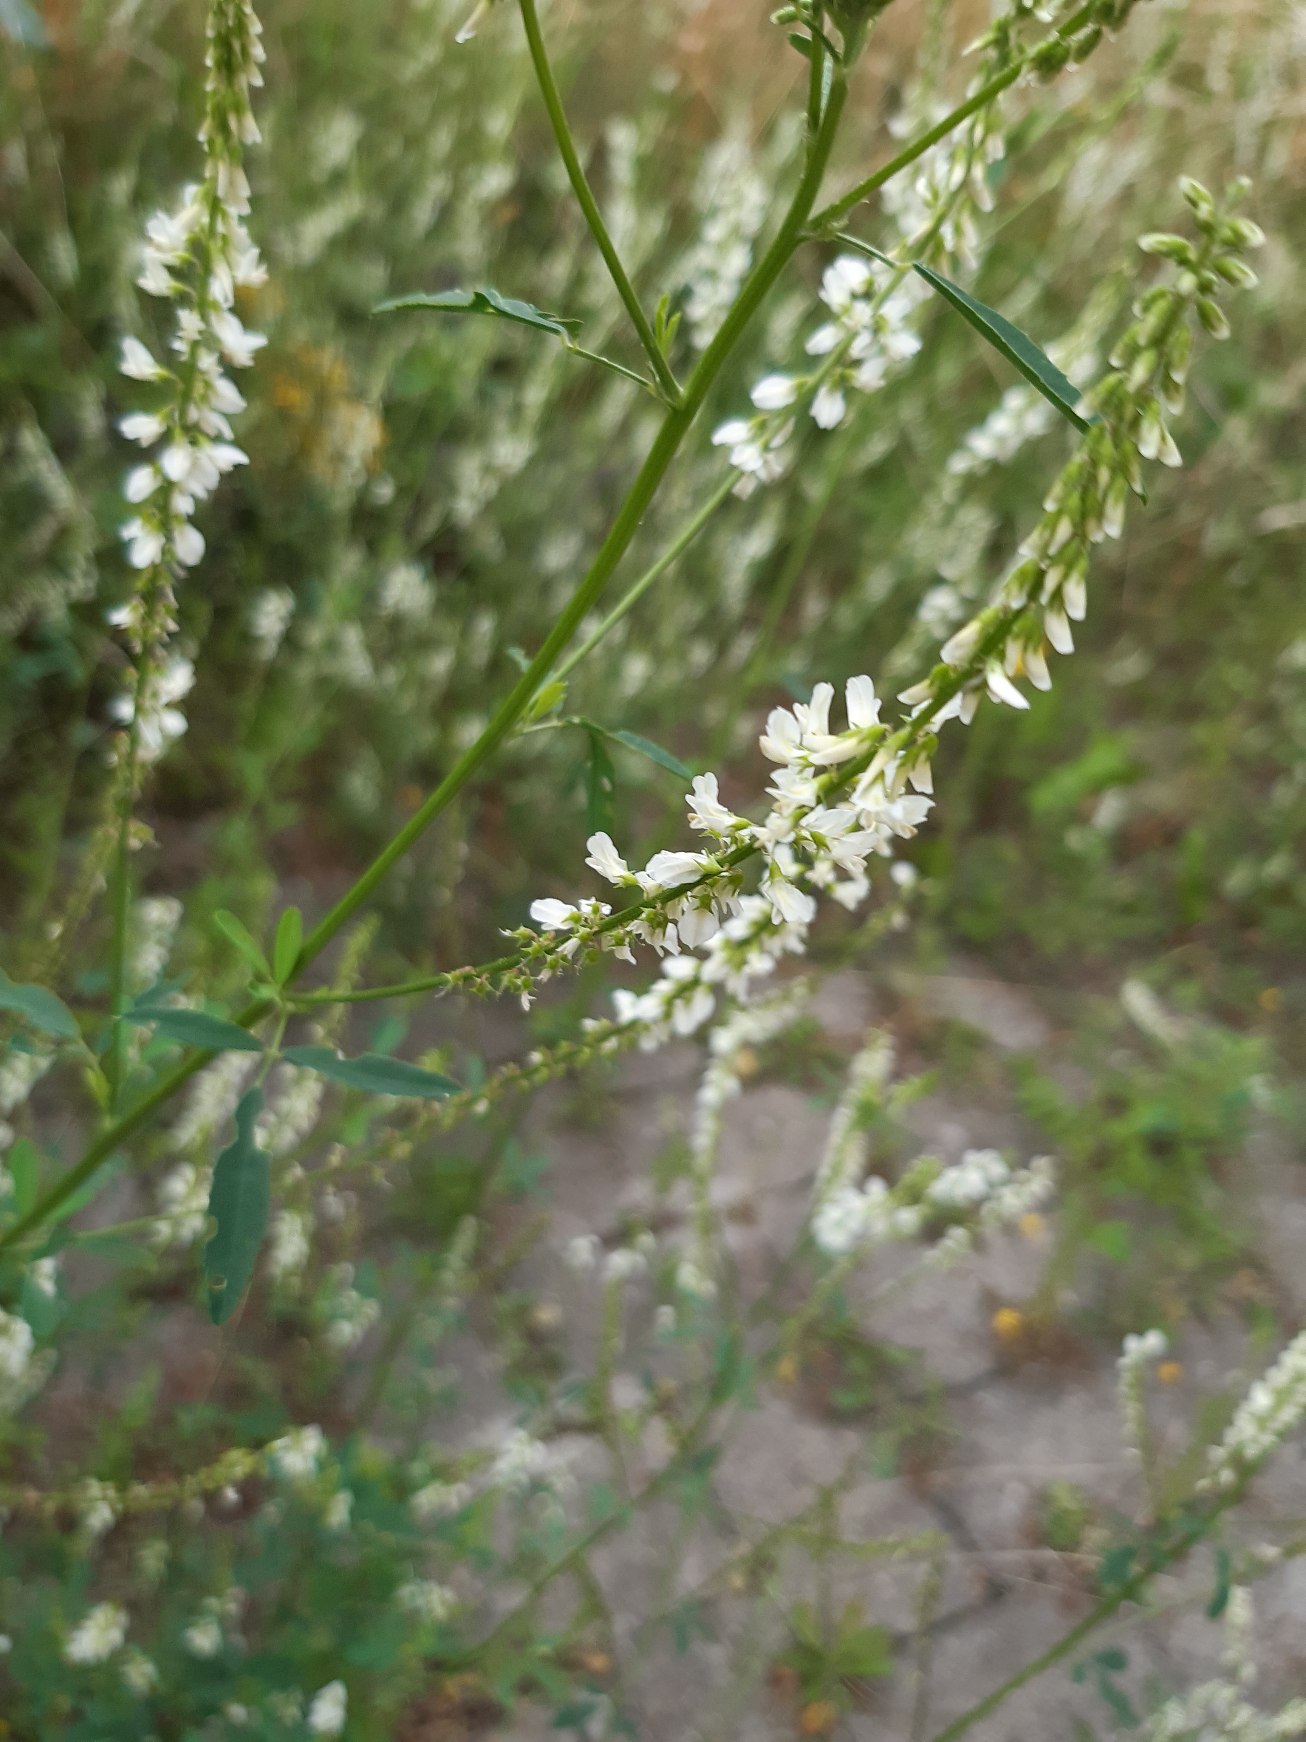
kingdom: Plantae
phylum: Tracheophyta
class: Magnoliopsida
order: Fabales
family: Fabaceae
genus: Melilotus
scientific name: Melilotus albus
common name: Hvid stenkløver
